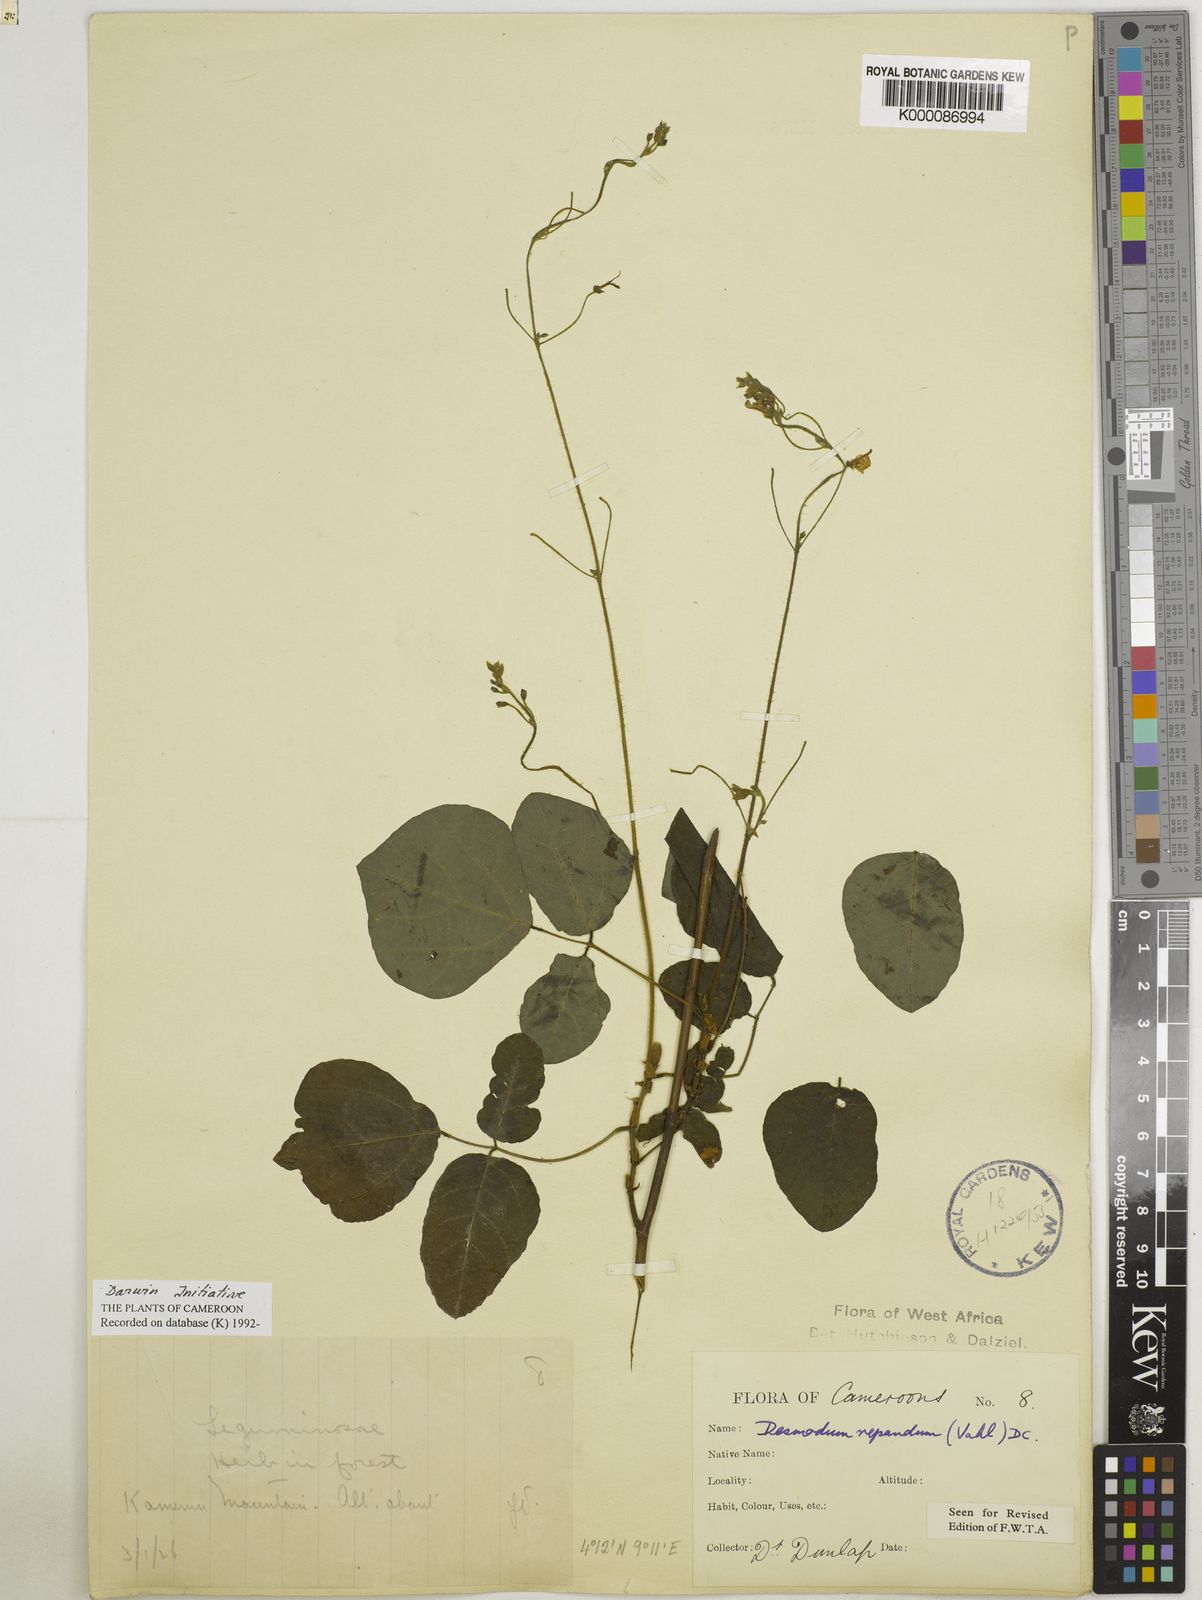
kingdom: Plantae
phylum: Tracheophyta
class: Magnoliopsida
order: Fabales
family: Fabaceae
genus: Desmodium
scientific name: Desmodium
